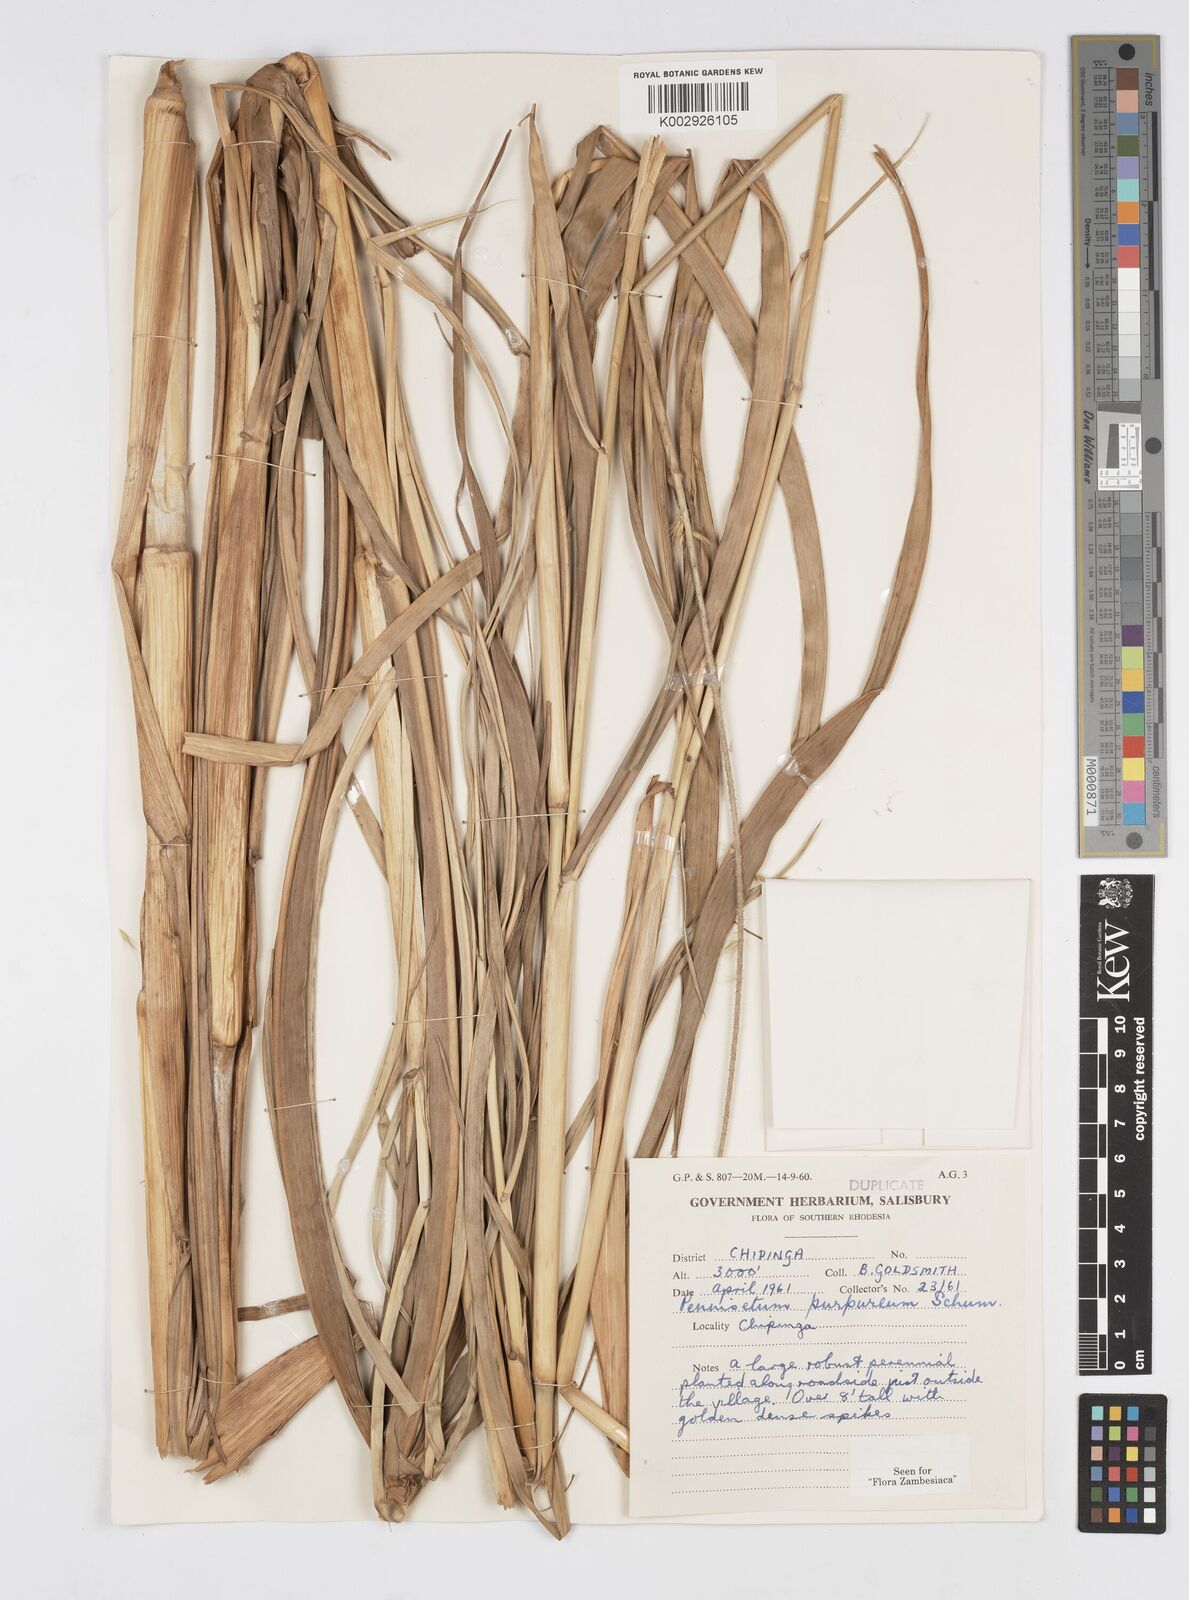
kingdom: Plantae
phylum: Tracheophyta
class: Liliopsida
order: Poales
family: Poaceae
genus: Cenchrus
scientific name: Cenchrus purpureus
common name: Elephant grass
